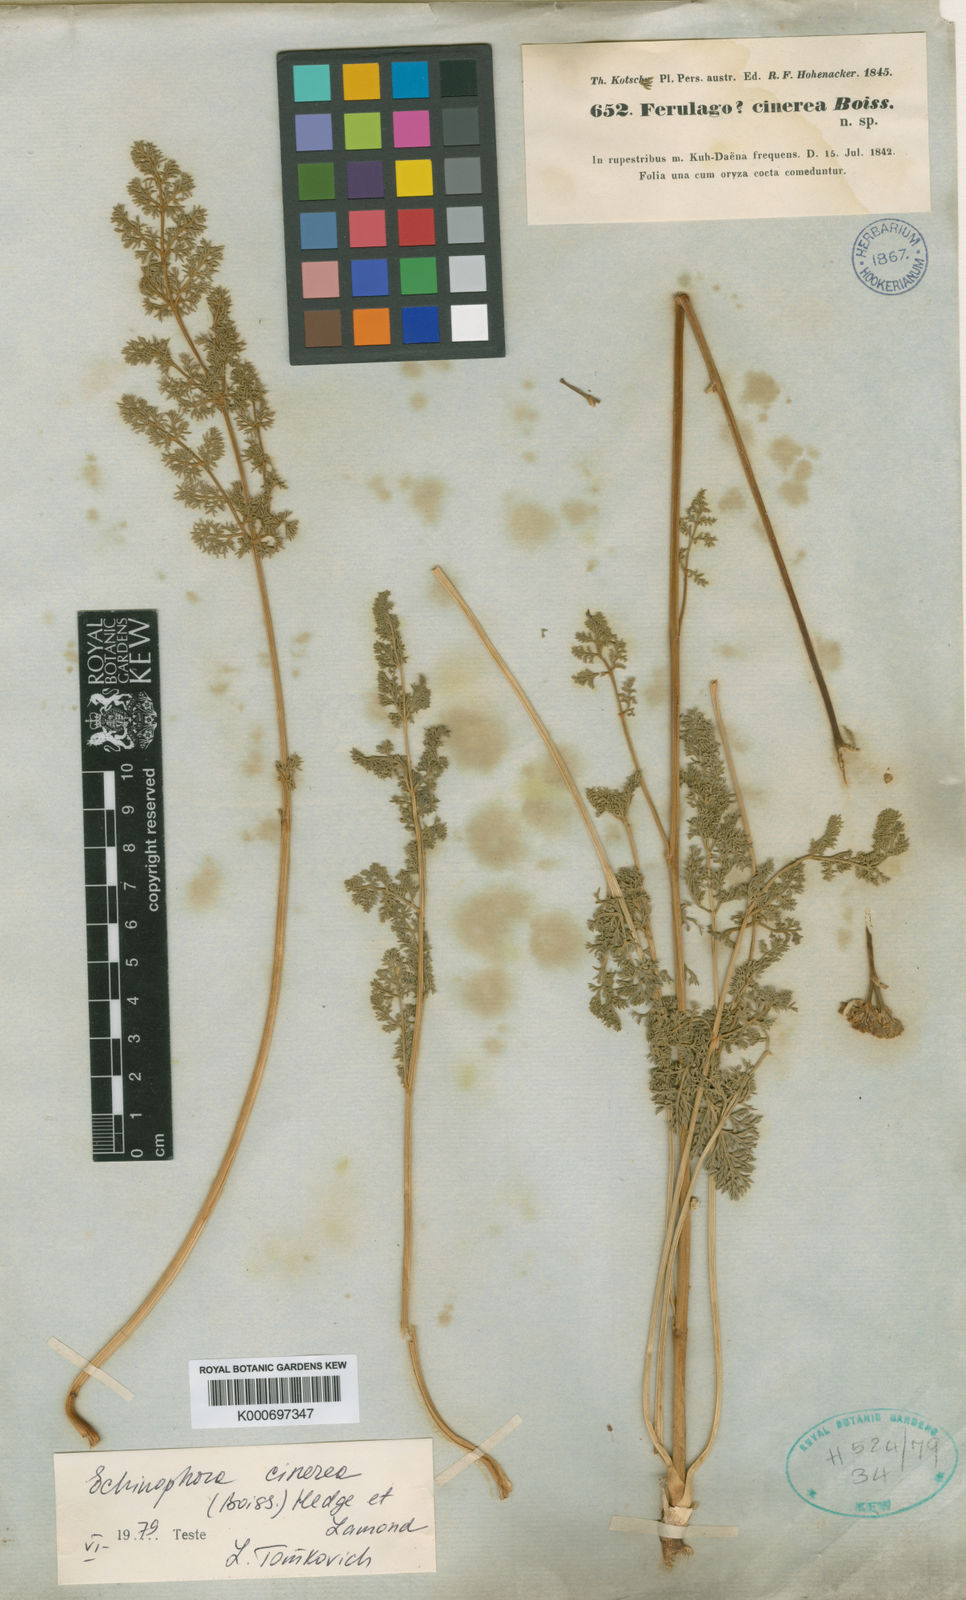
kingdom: Plantae
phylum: Tracheophyta
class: Magnoliopsida
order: Apiales
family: Apiaceae
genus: Echinophora
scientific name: Echinophora cinerea
